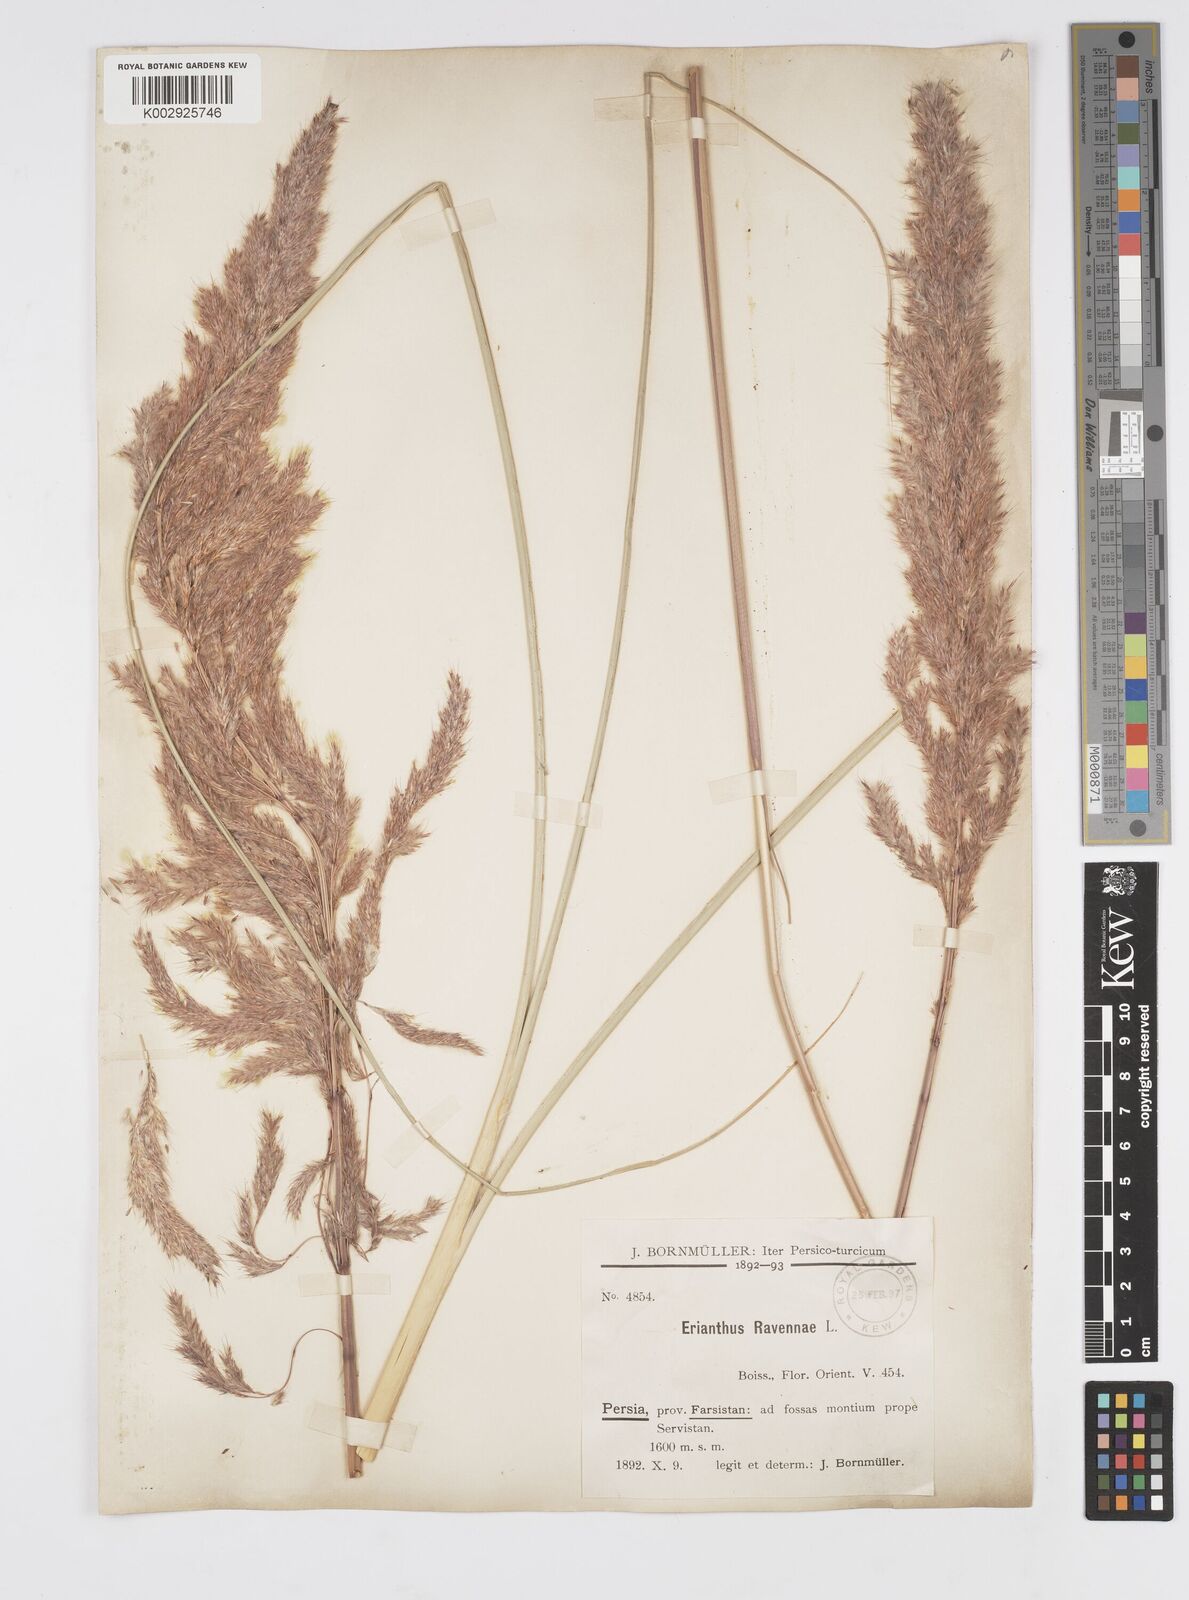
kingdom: Plantae
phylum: Tracheophyta
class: Liliopsida
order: Poales
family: Poaceae
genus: Tripidium
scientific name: Tripidium ravennae
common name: Ravenna grass
